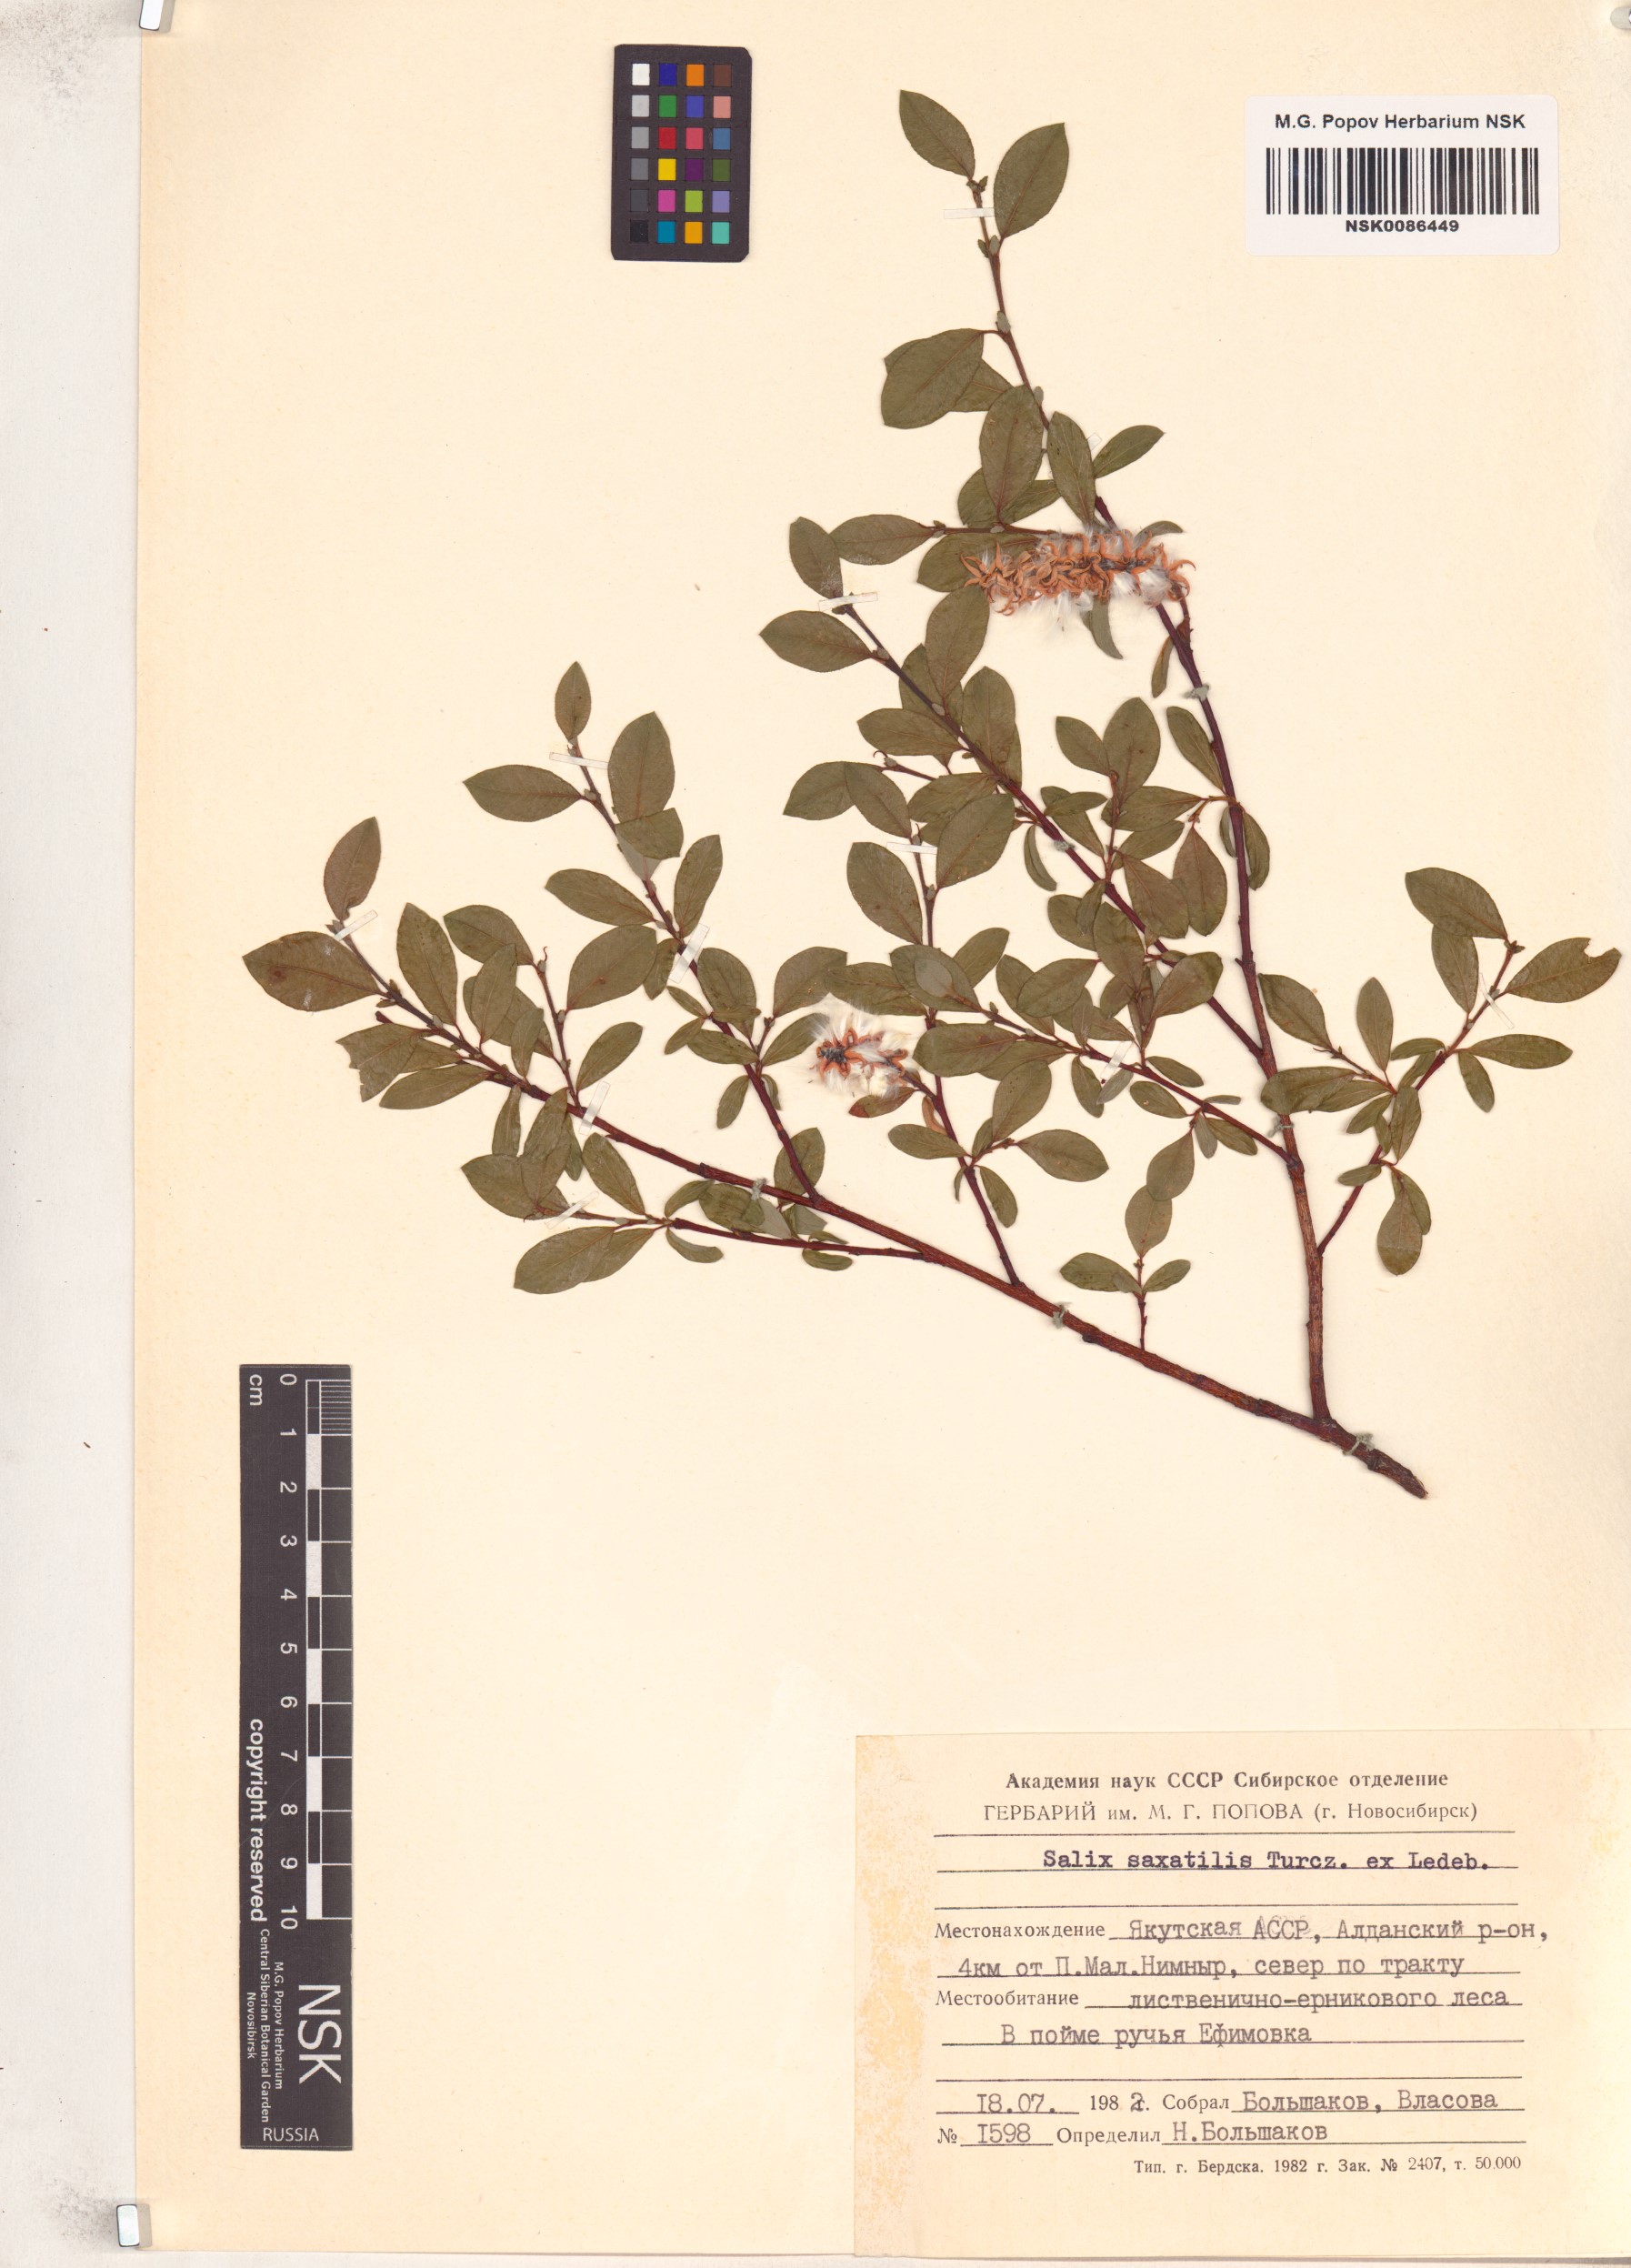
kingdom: Plantae
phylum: Tracheophyta
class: Magnoliopsida
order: Malpighiales
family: Salicaceae
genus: Salix
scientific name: Salix saxatilis
